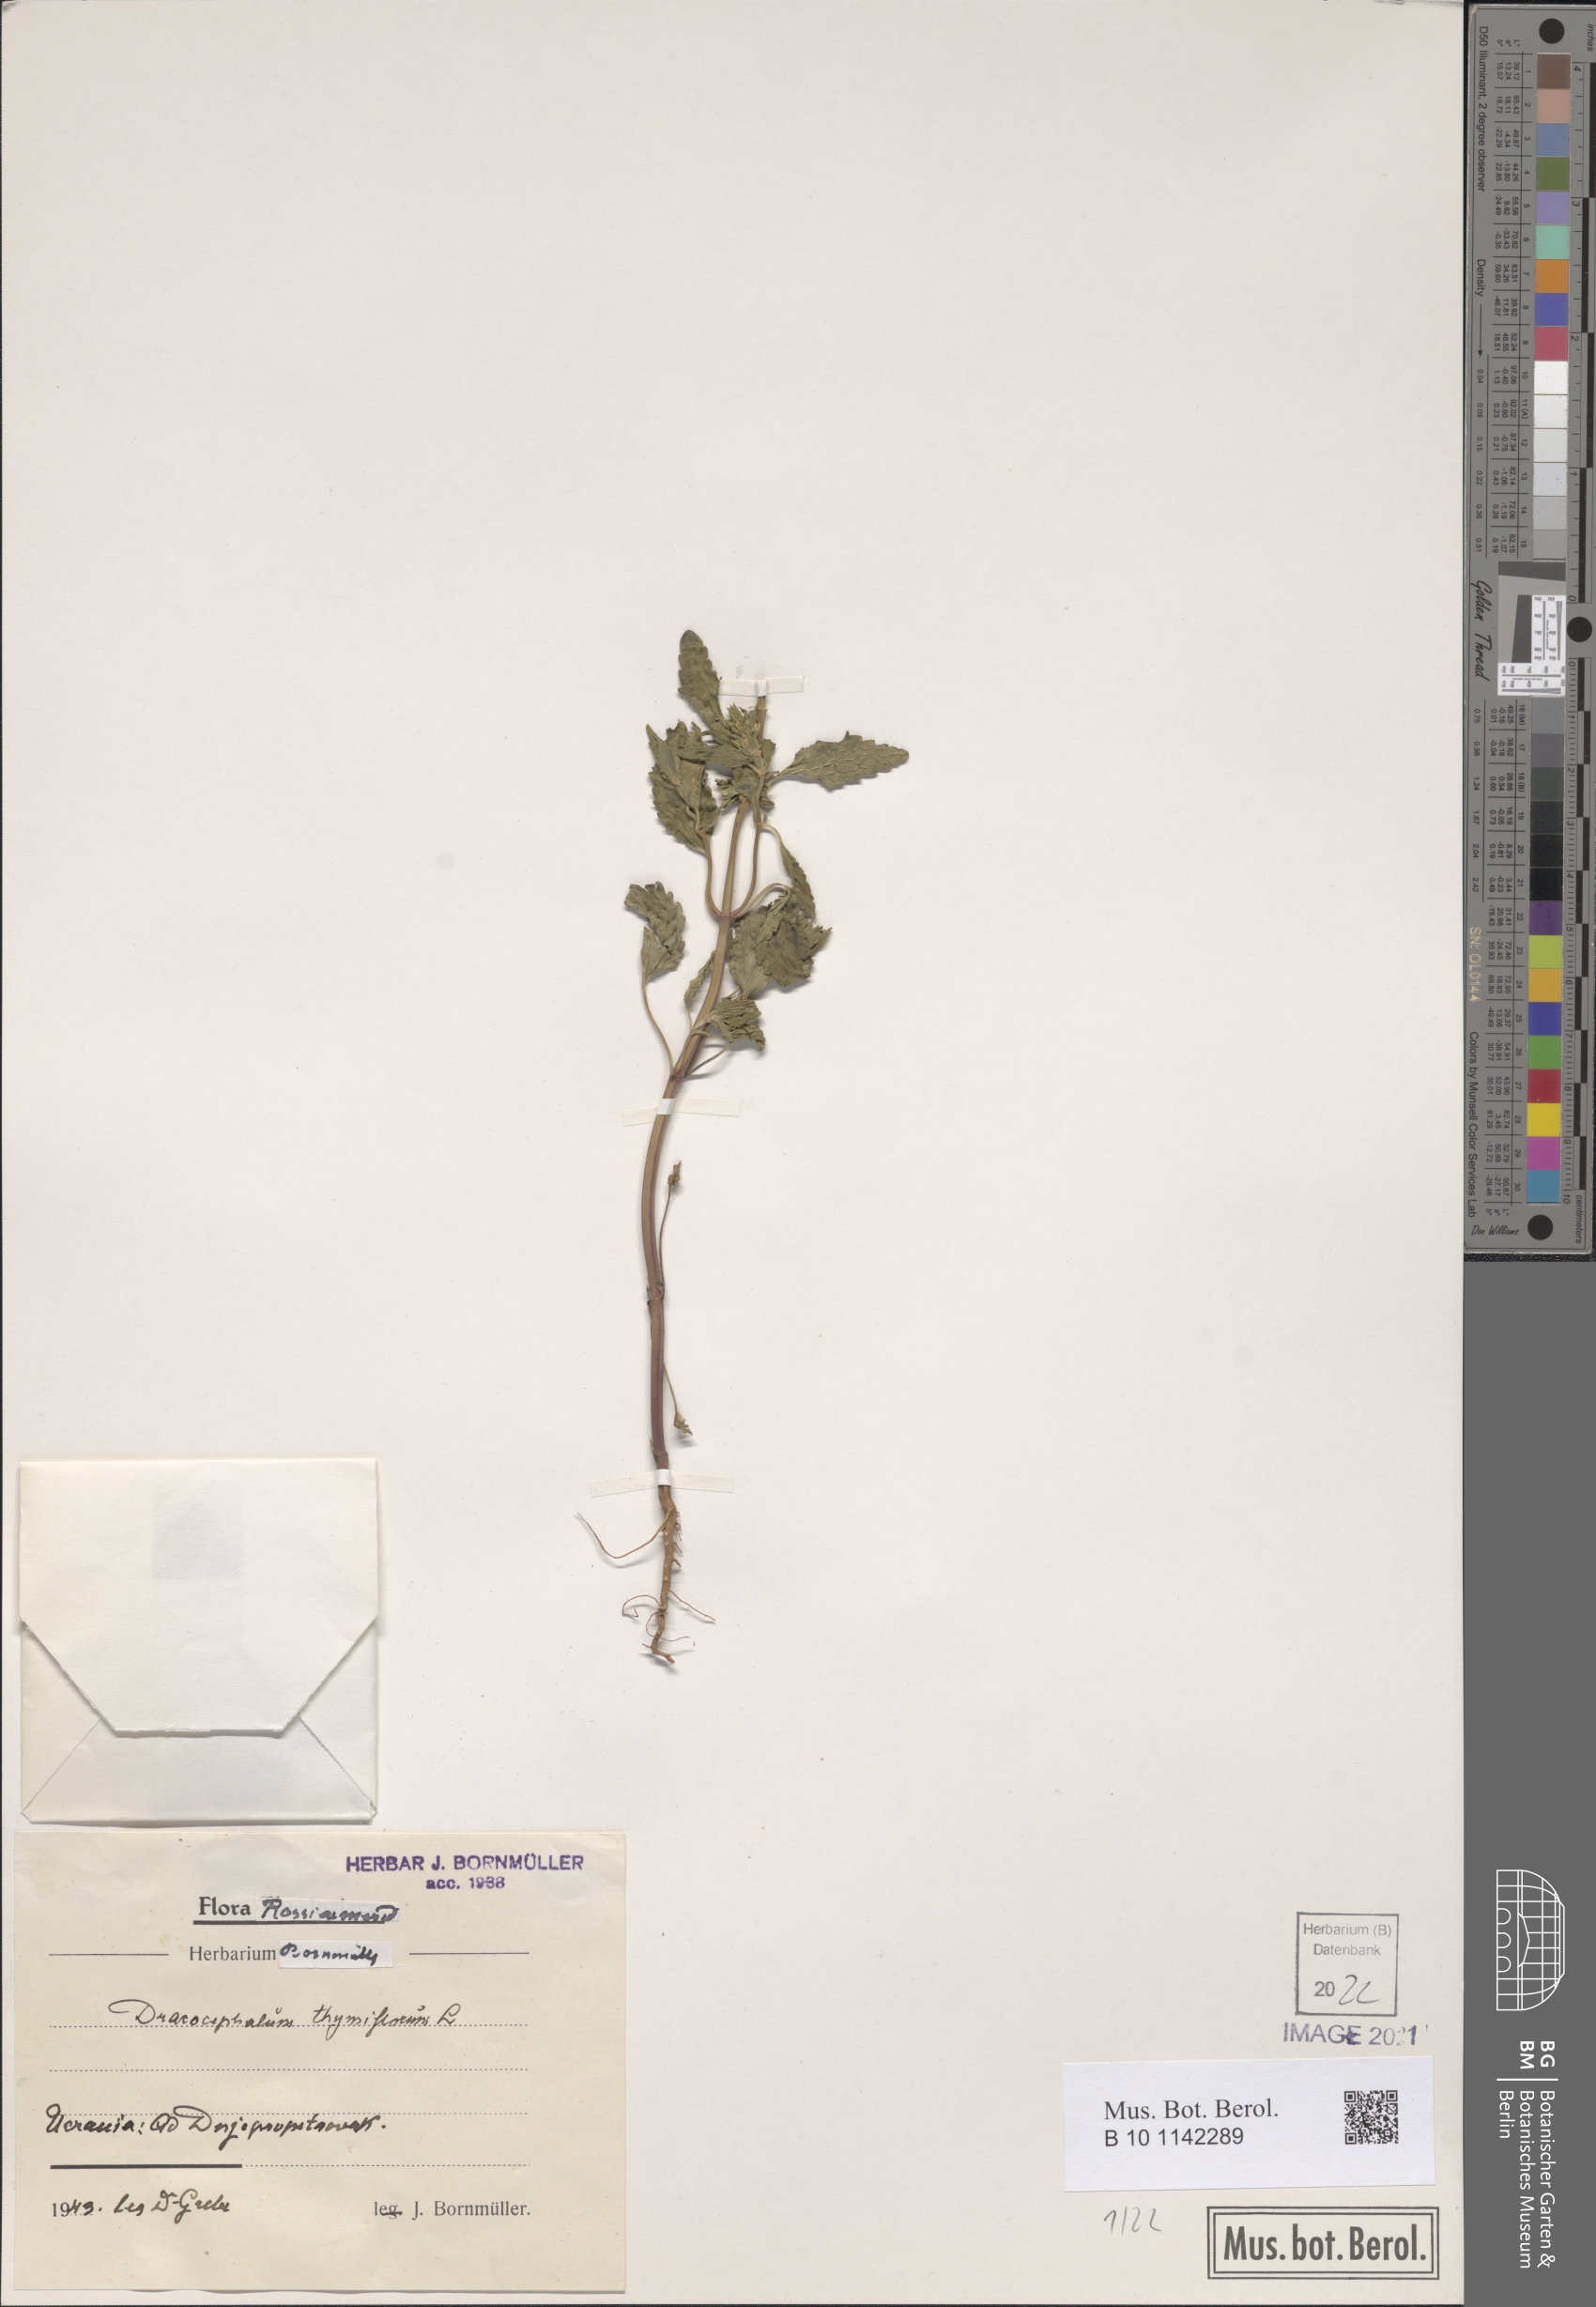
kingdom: Plantae
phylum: Tracheophyta
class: Magnoliopsida
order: Lamiales
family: Lamiaceae
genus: Dracocephalum
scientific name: Dracocephalum thymiflorum
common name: Thymeleaf dragonhead
